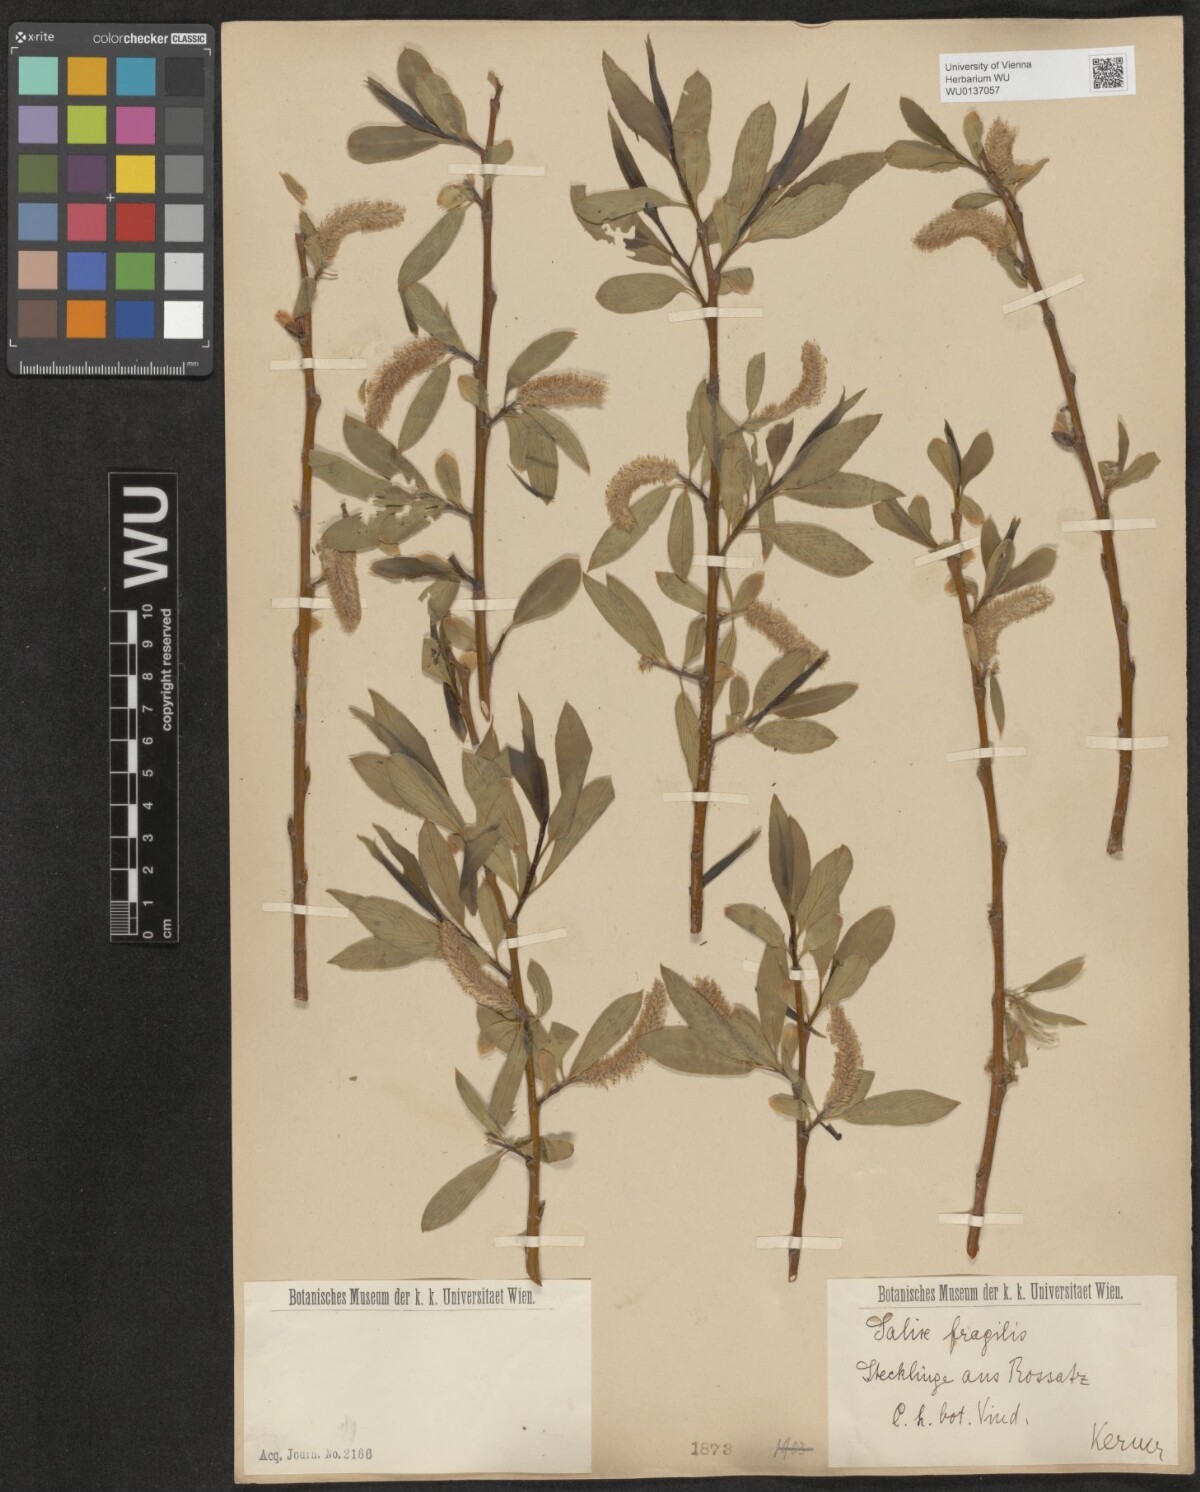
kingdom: Plantae
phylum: Tracheophyta
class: Magnoliopsida
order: Malpighiales
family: Salicaceae
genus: Salix
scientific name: Salix fragilis
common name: Crack willow
